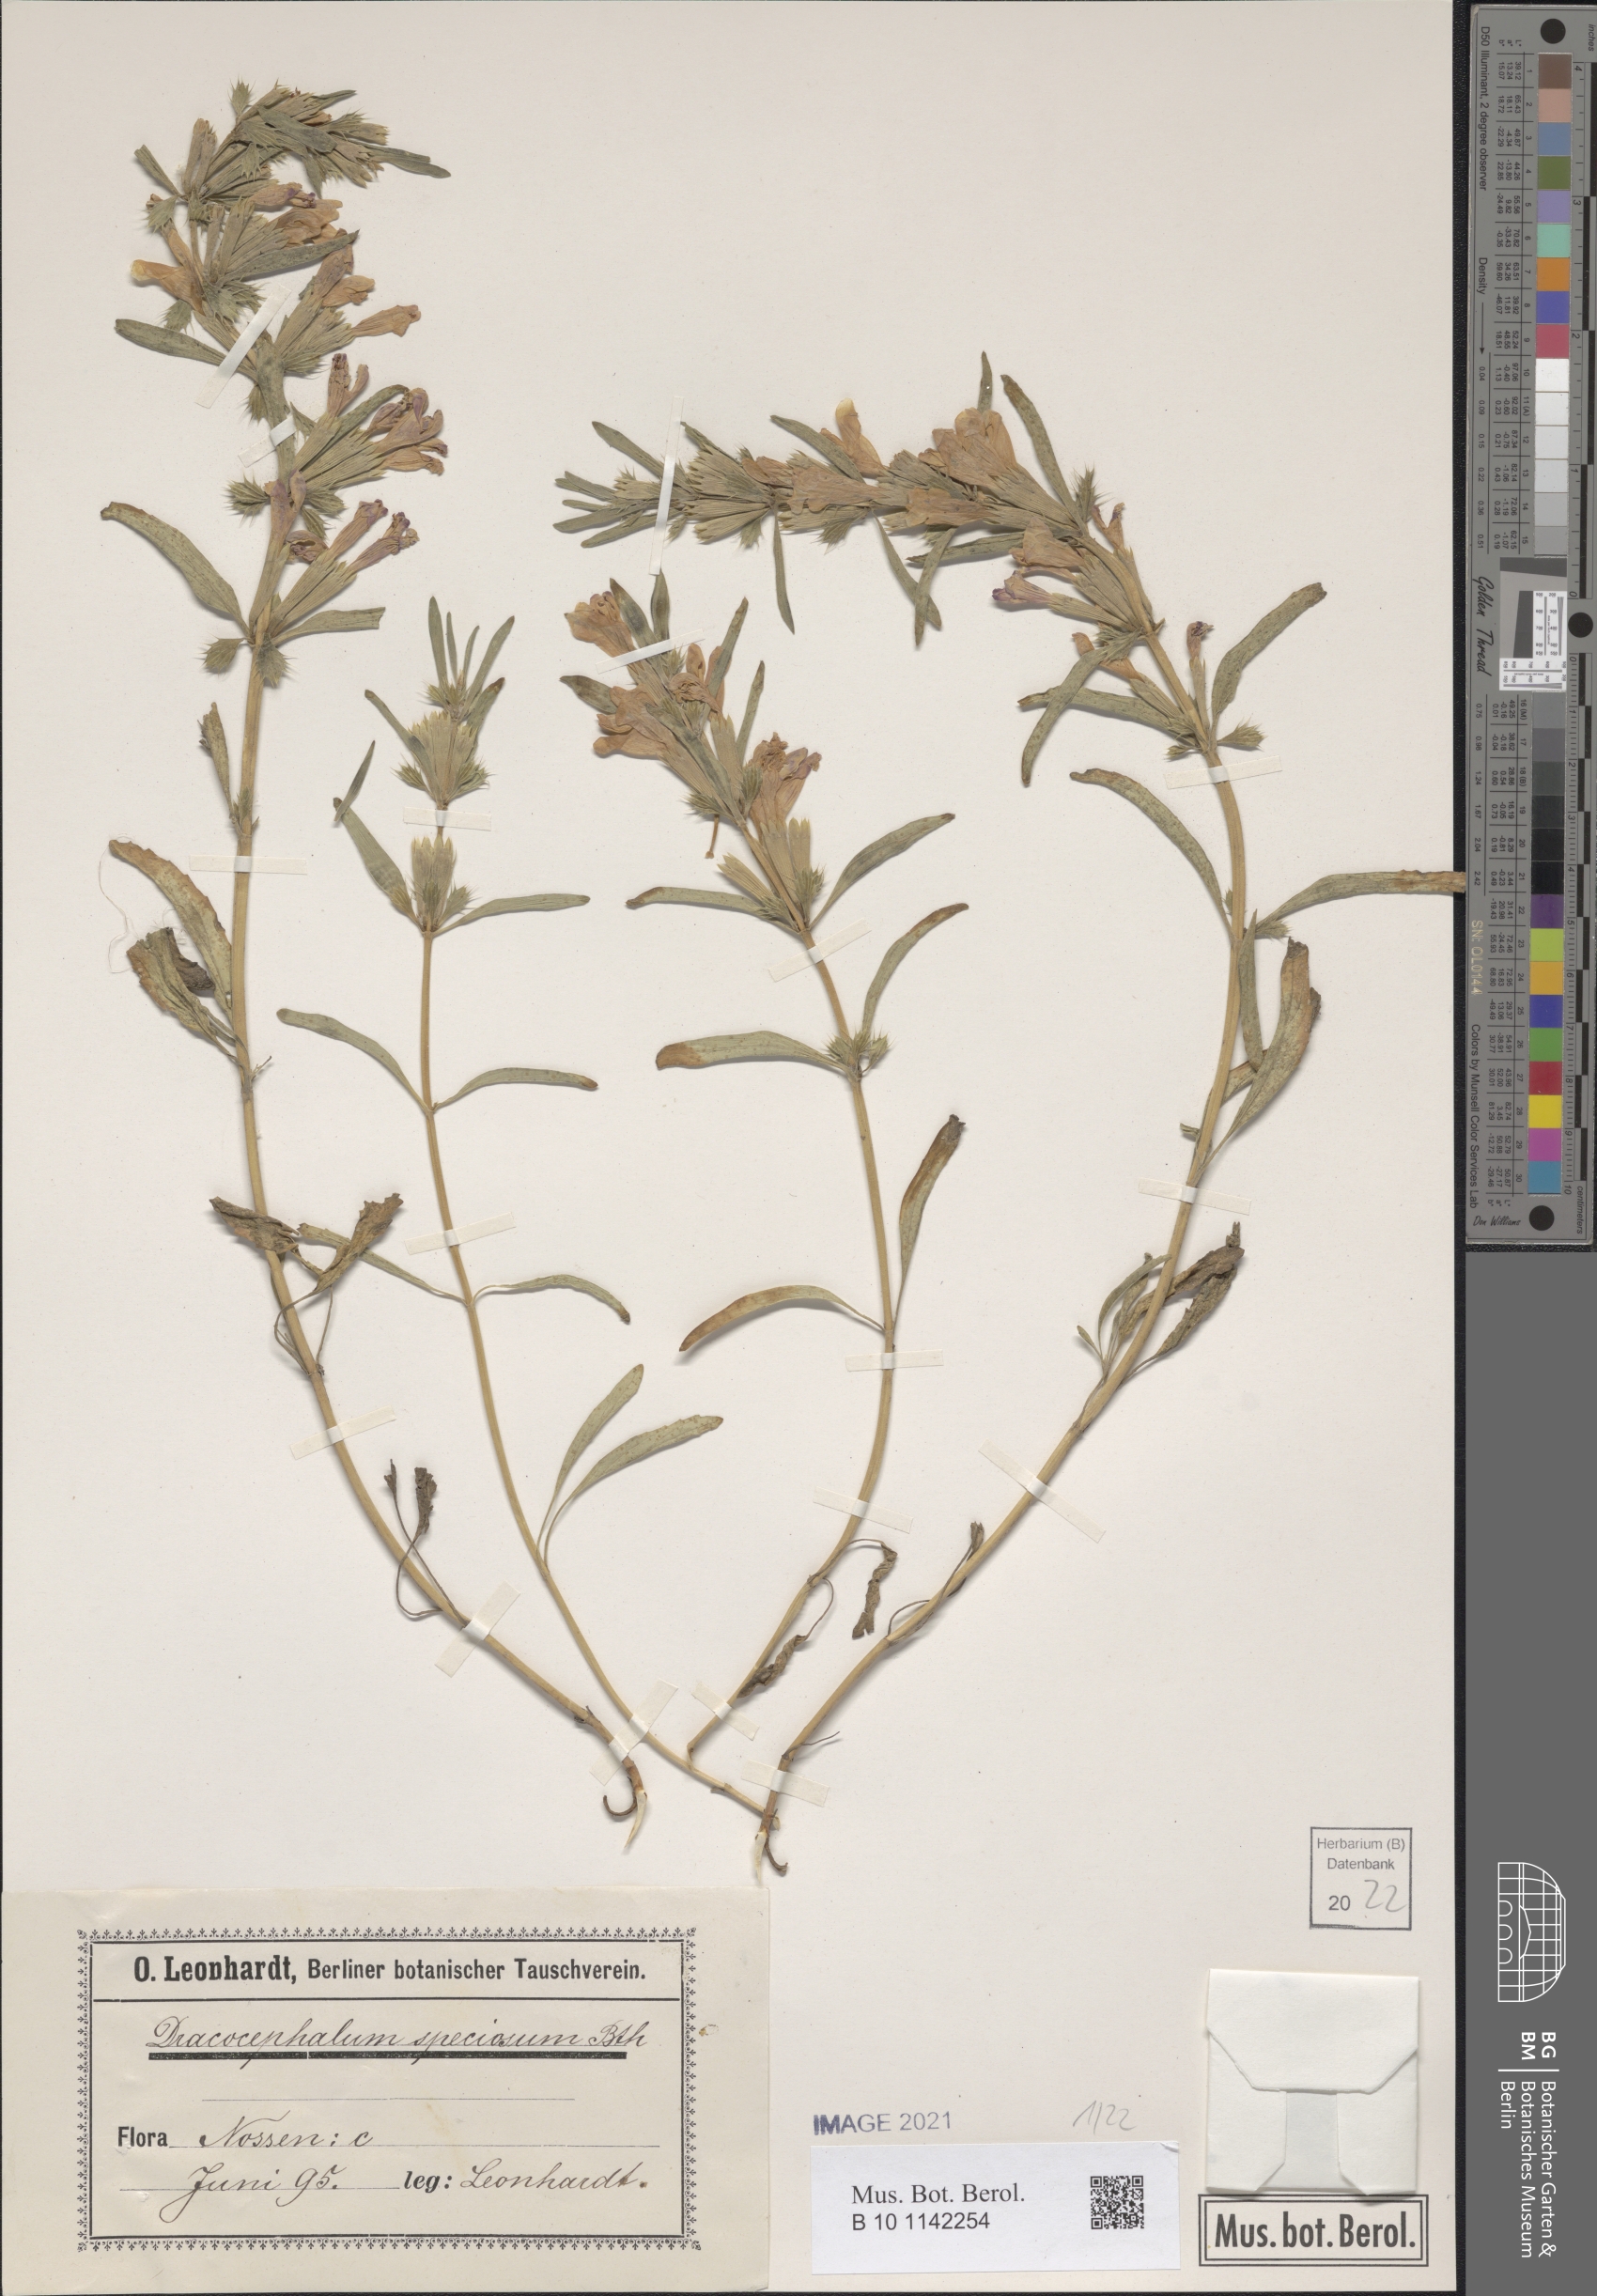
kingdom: Plantae
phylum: Tracheophyta
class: Magnoliopsida
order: Lamiales
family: Lamiaceae
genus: Dracocephalum
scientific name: Dracocephalum wallichii
